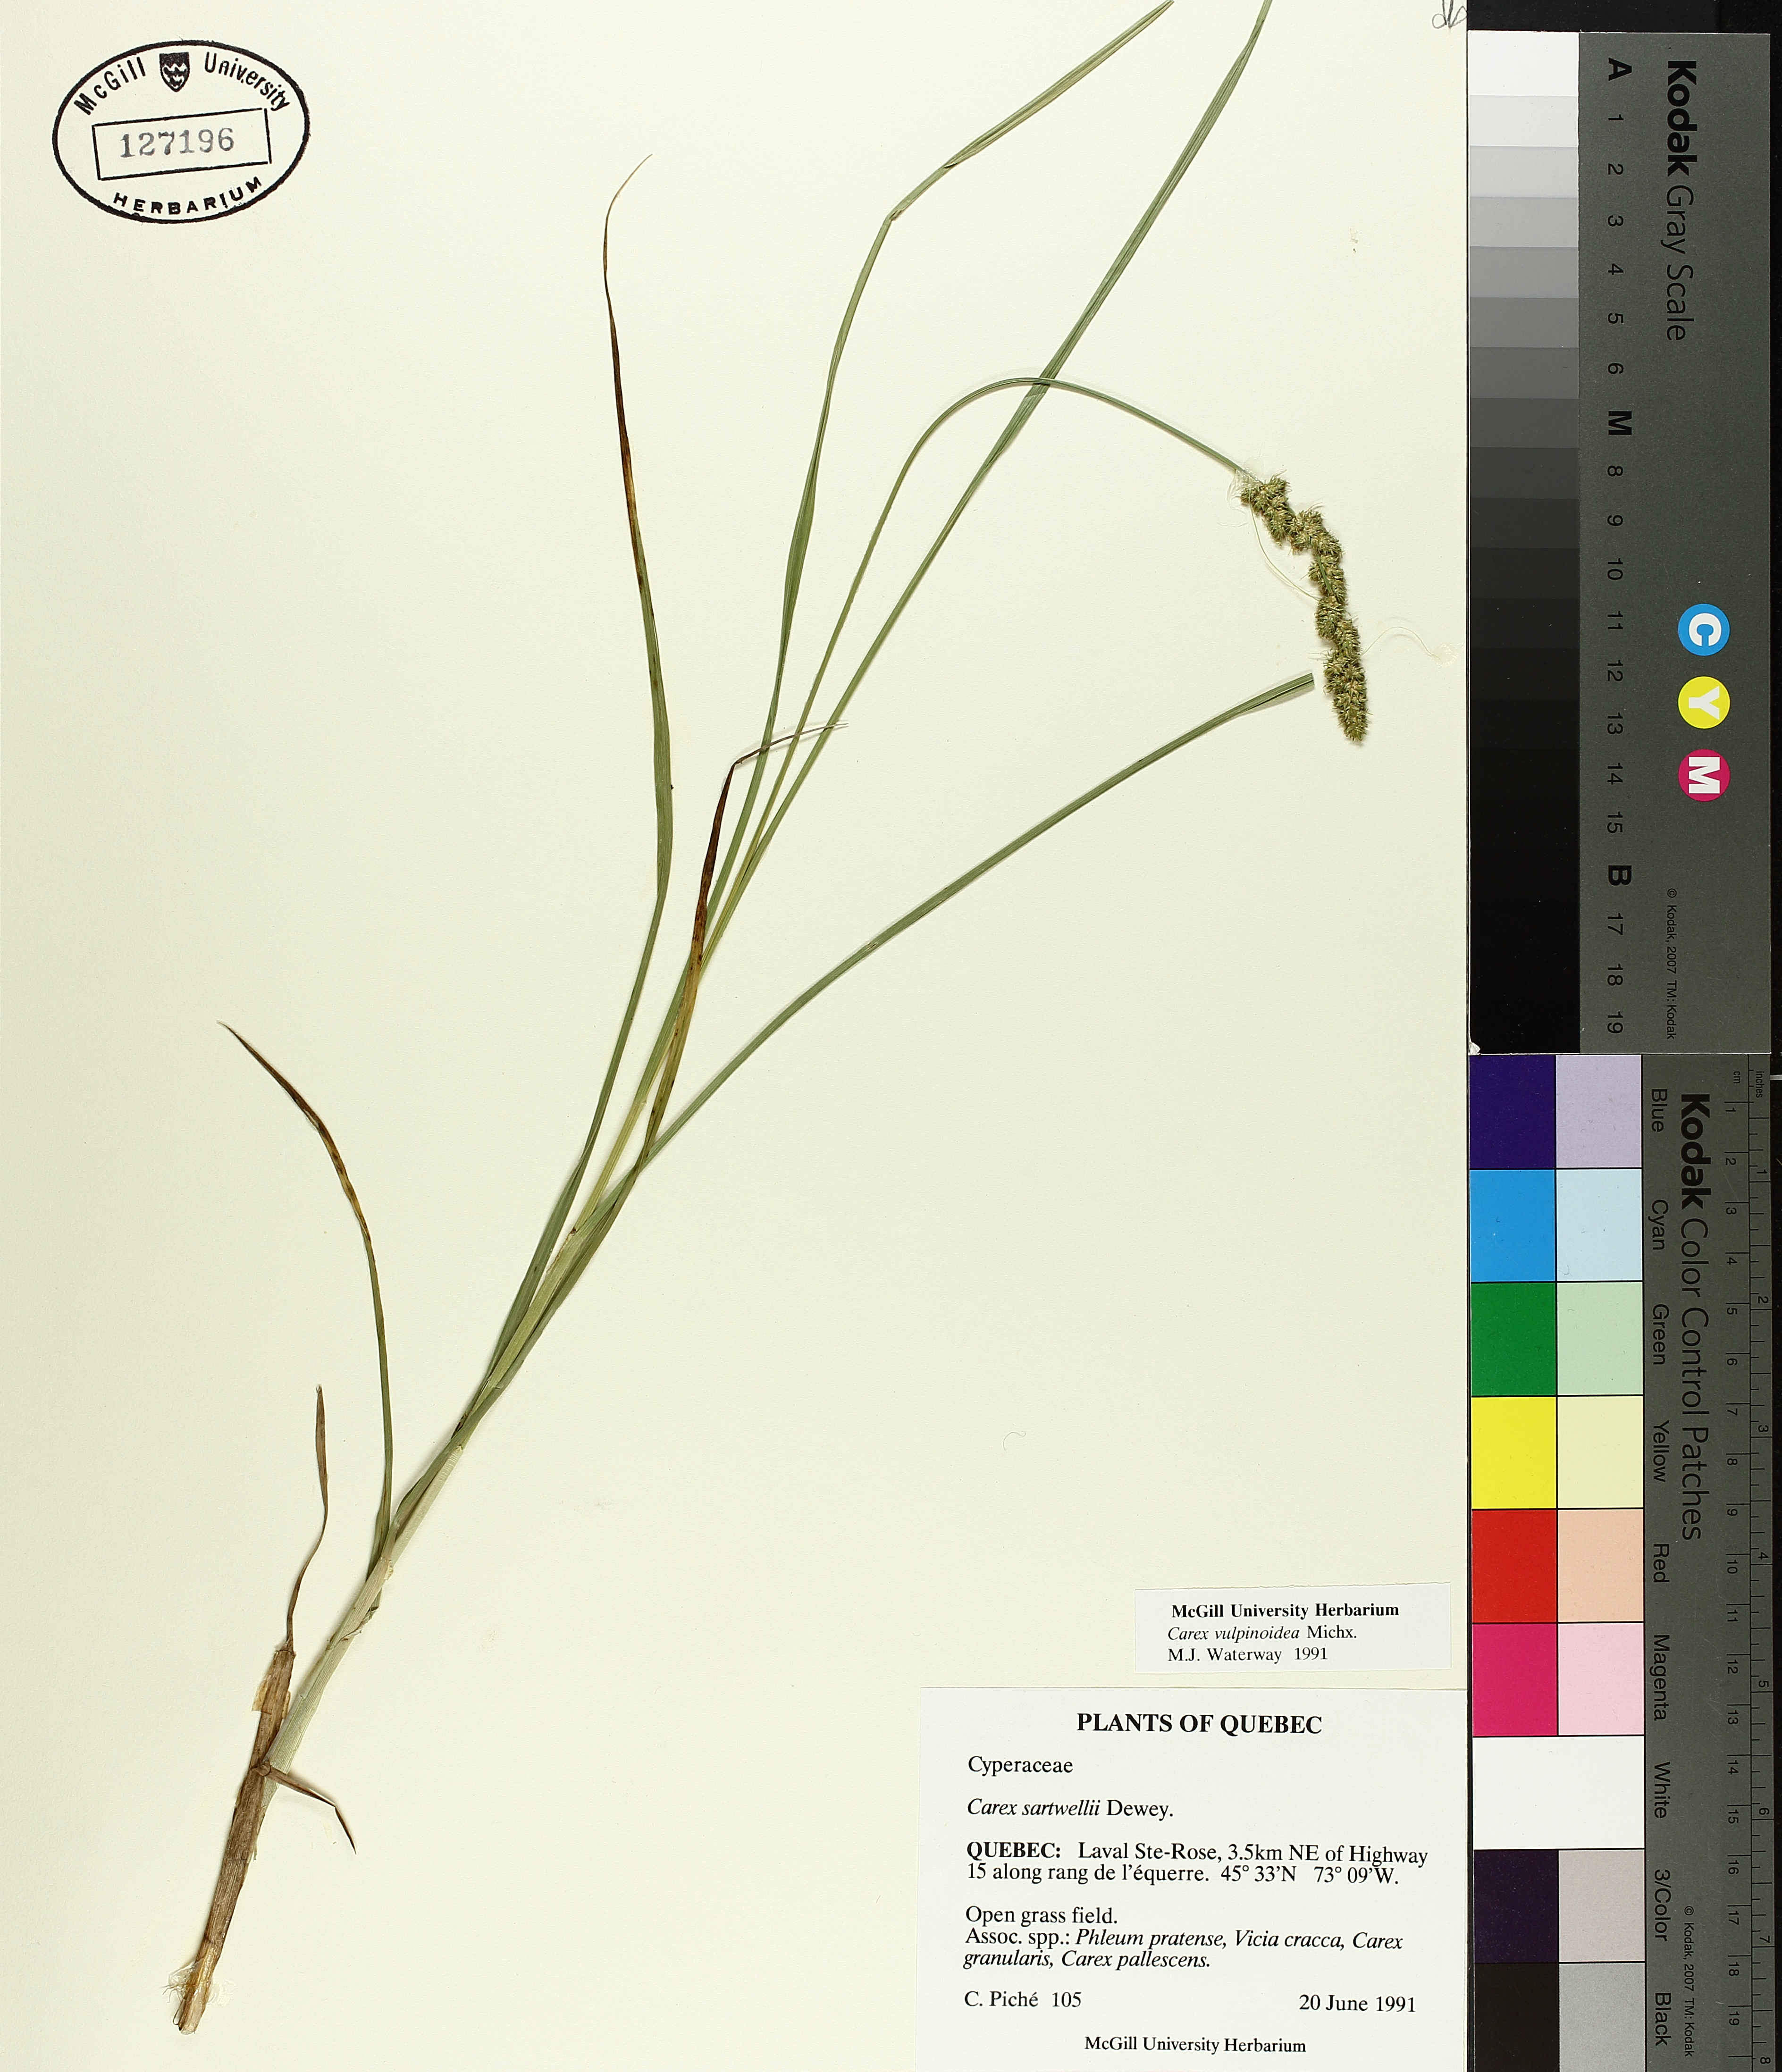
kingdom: Plantae
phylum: Tracheophyta
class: Liliopsida
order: Poales
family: Cyperaceae
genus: Carex
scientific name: Carex vulpinoidea
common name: American fox-sedge
